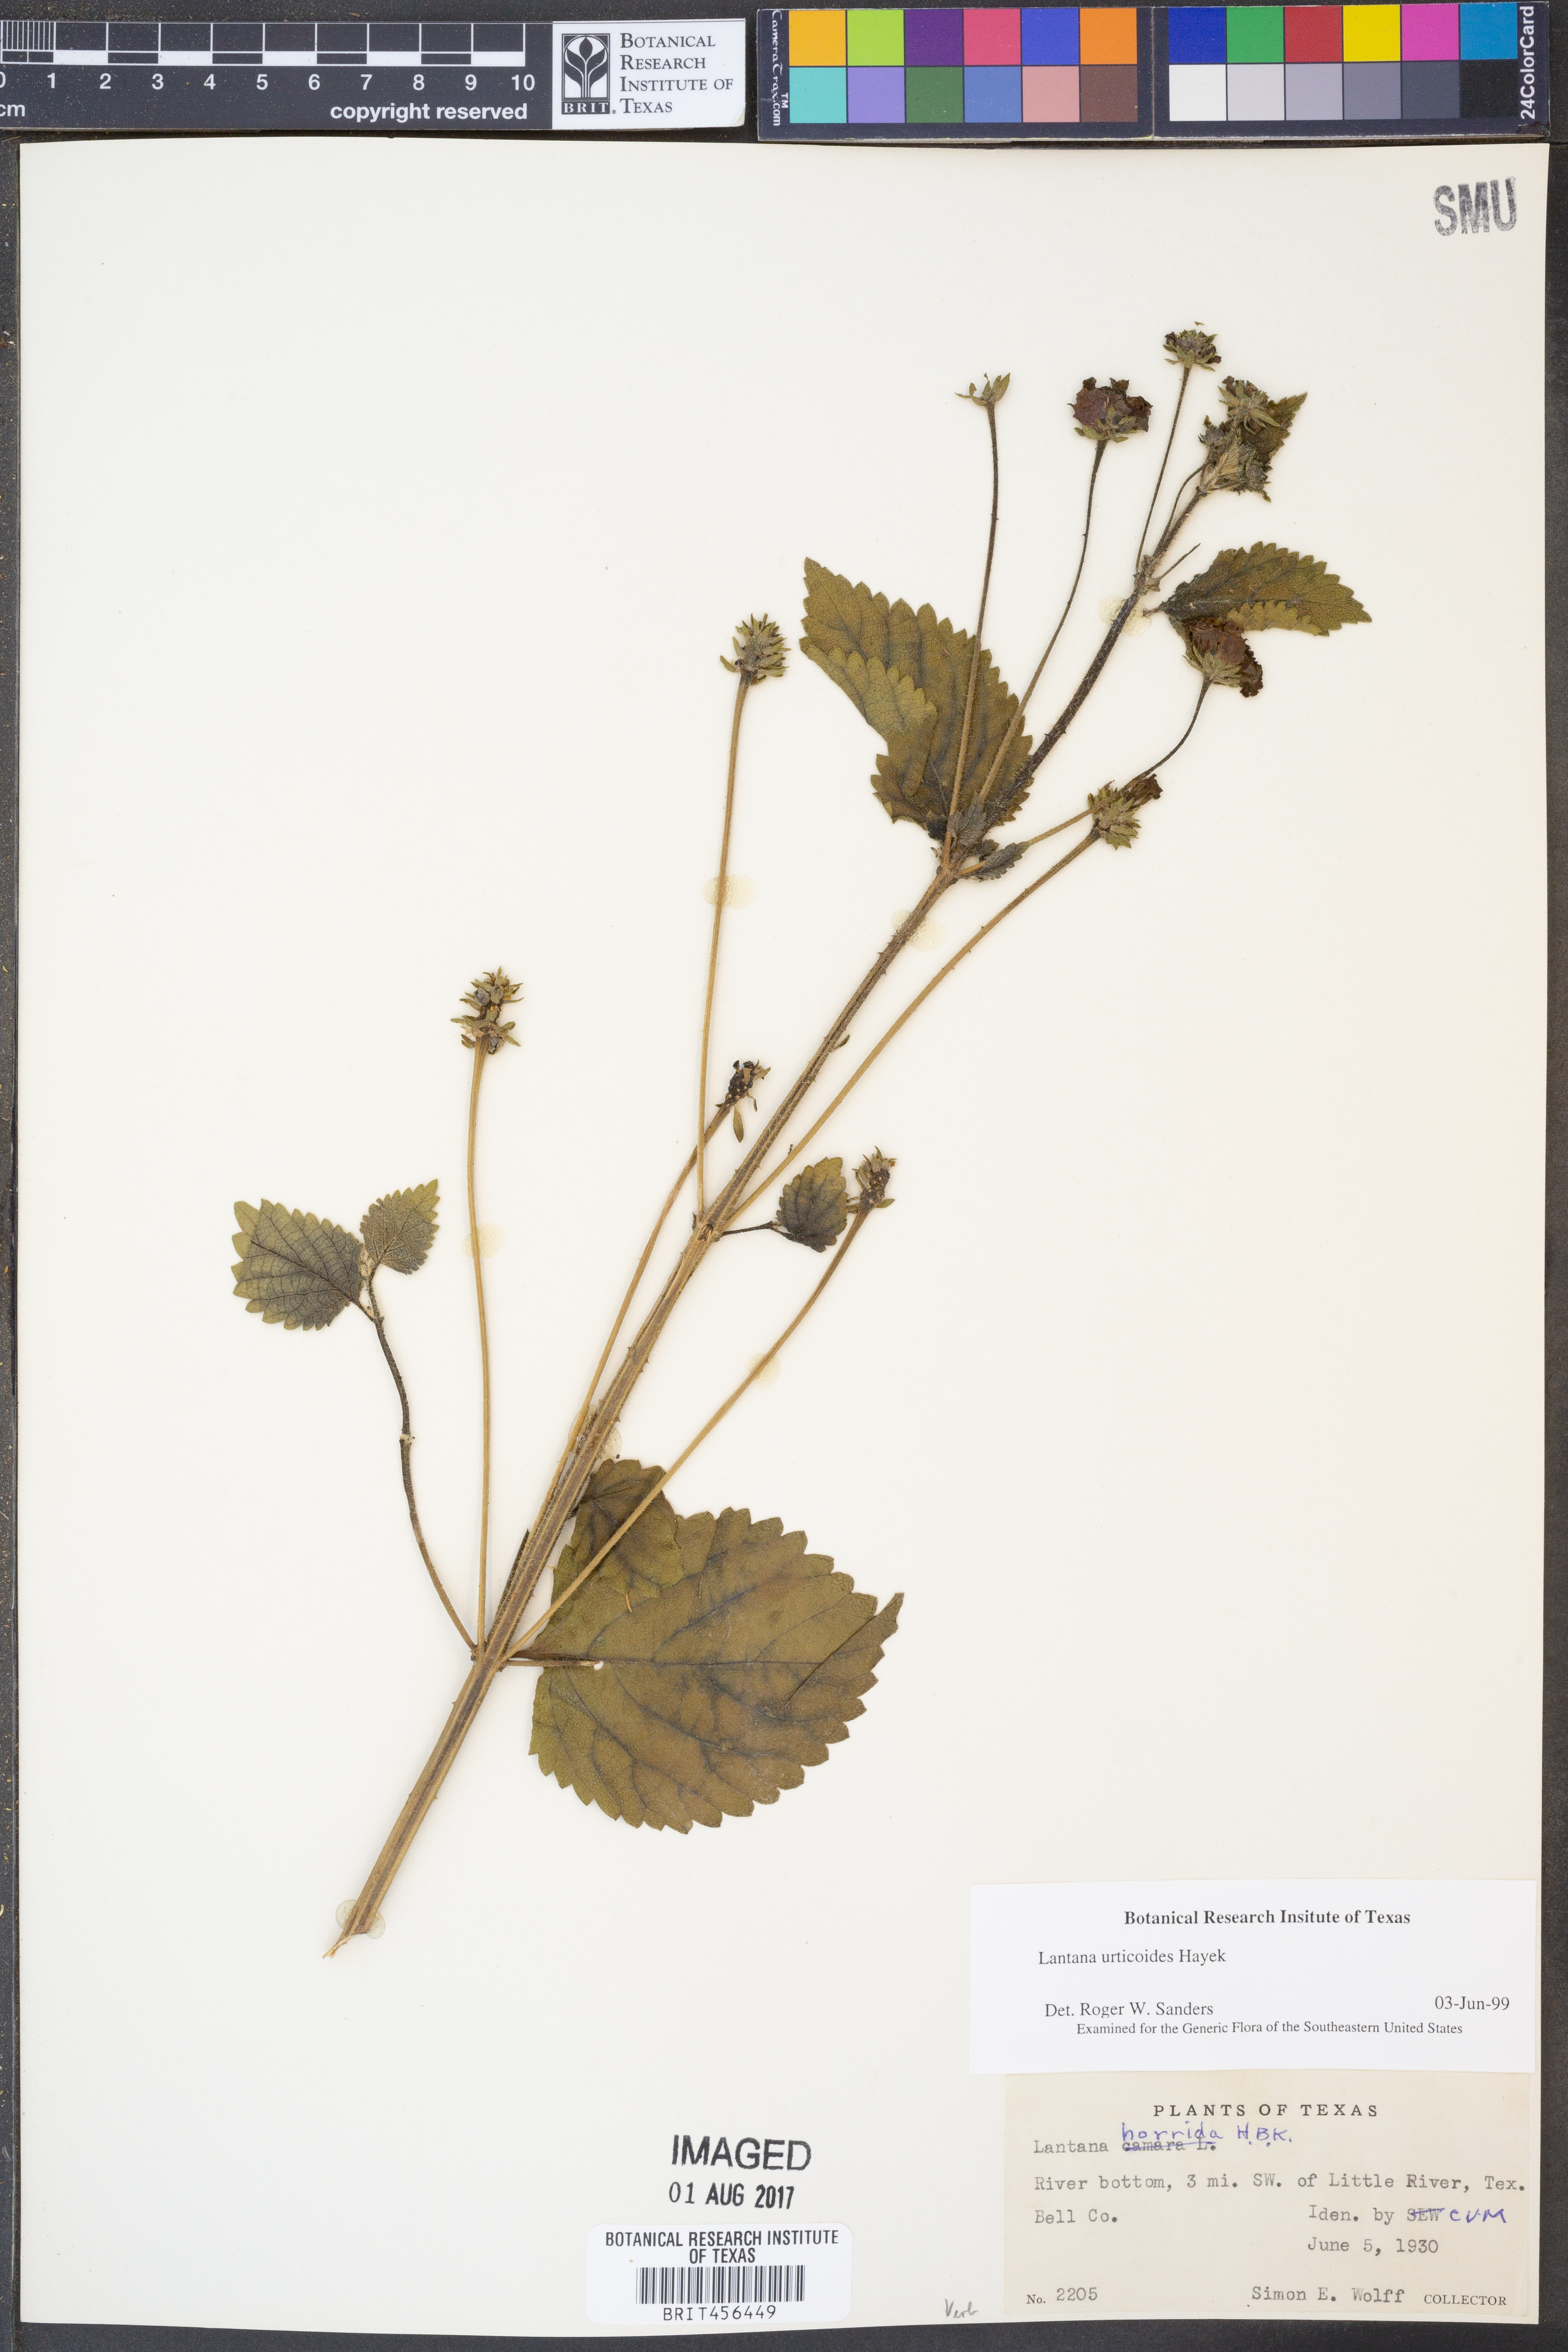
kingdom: Plantae
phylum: Tracheophyta
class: Magnoliopsida
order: Lamiales
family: Verbenaceae
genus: Lantana
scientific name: Lantana urticoides
